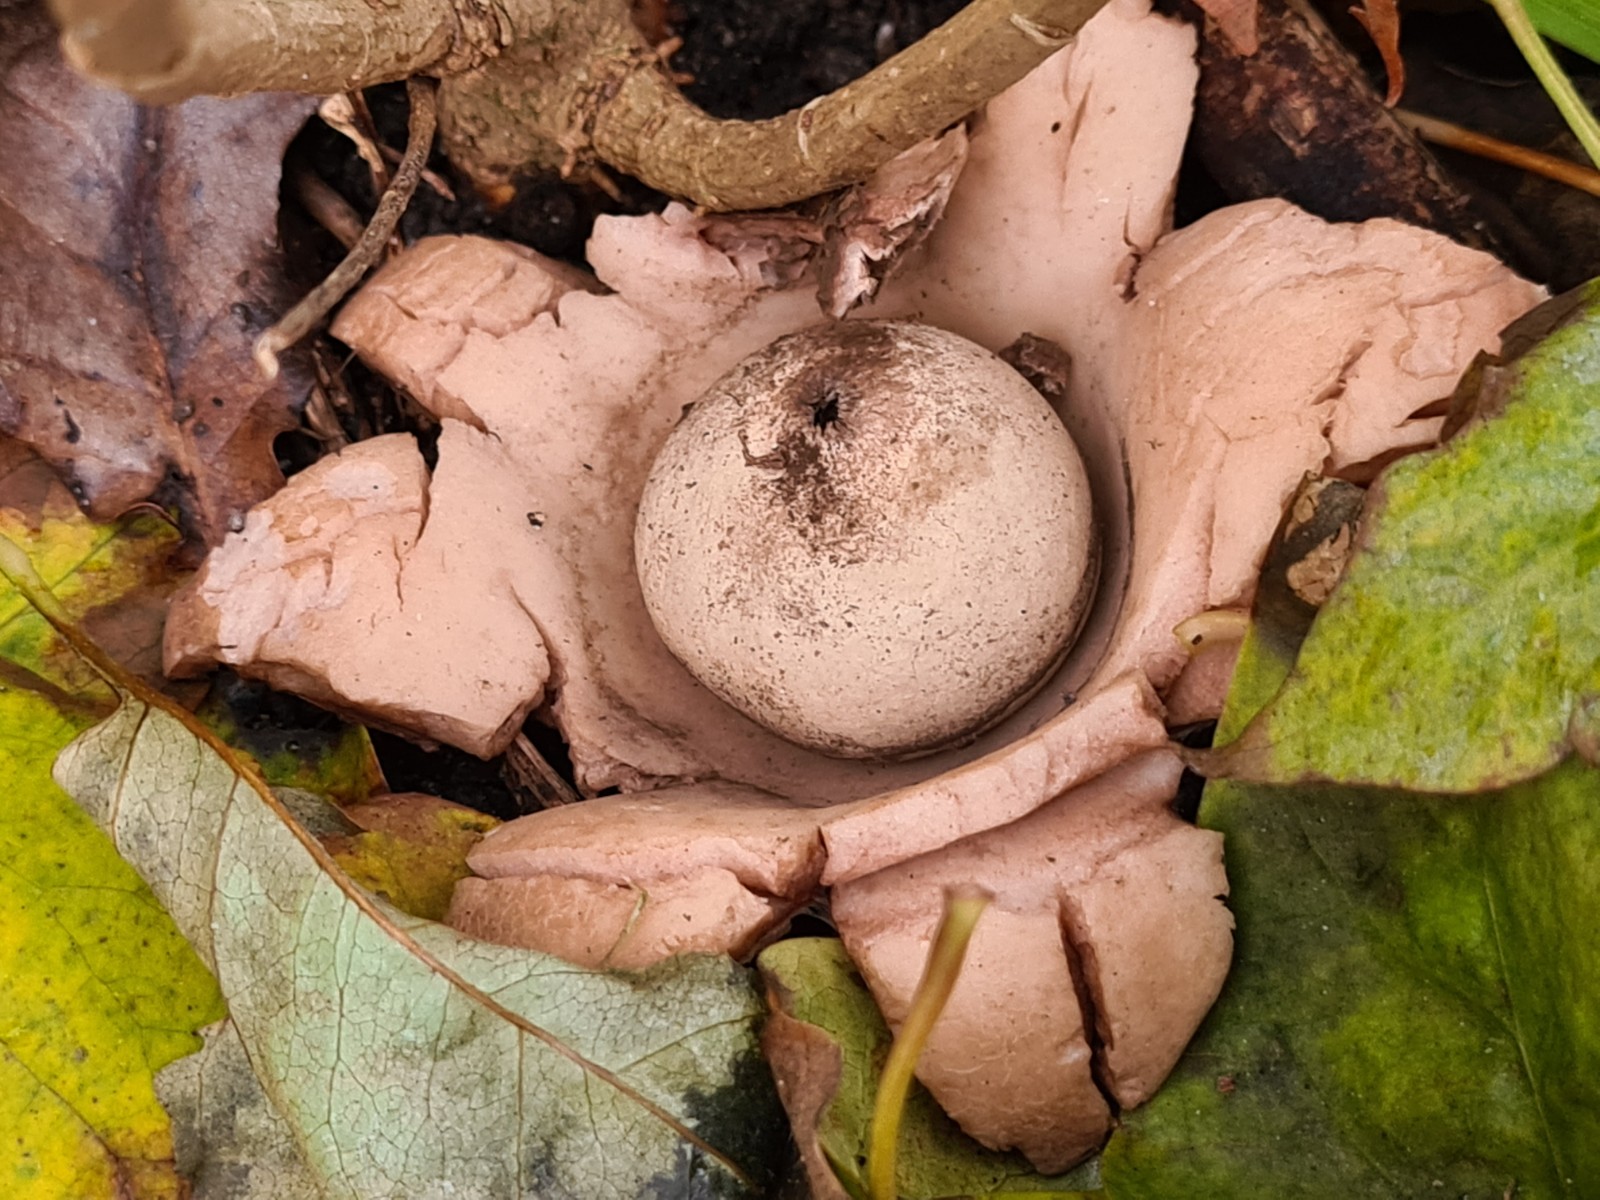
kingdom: Fungi
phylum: Basidiomycota
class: Agaricomycetes
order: Geastrales
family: Geastraceae
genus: Geastrum
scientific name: Geastrum michelianum
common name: kødet stjernebold
